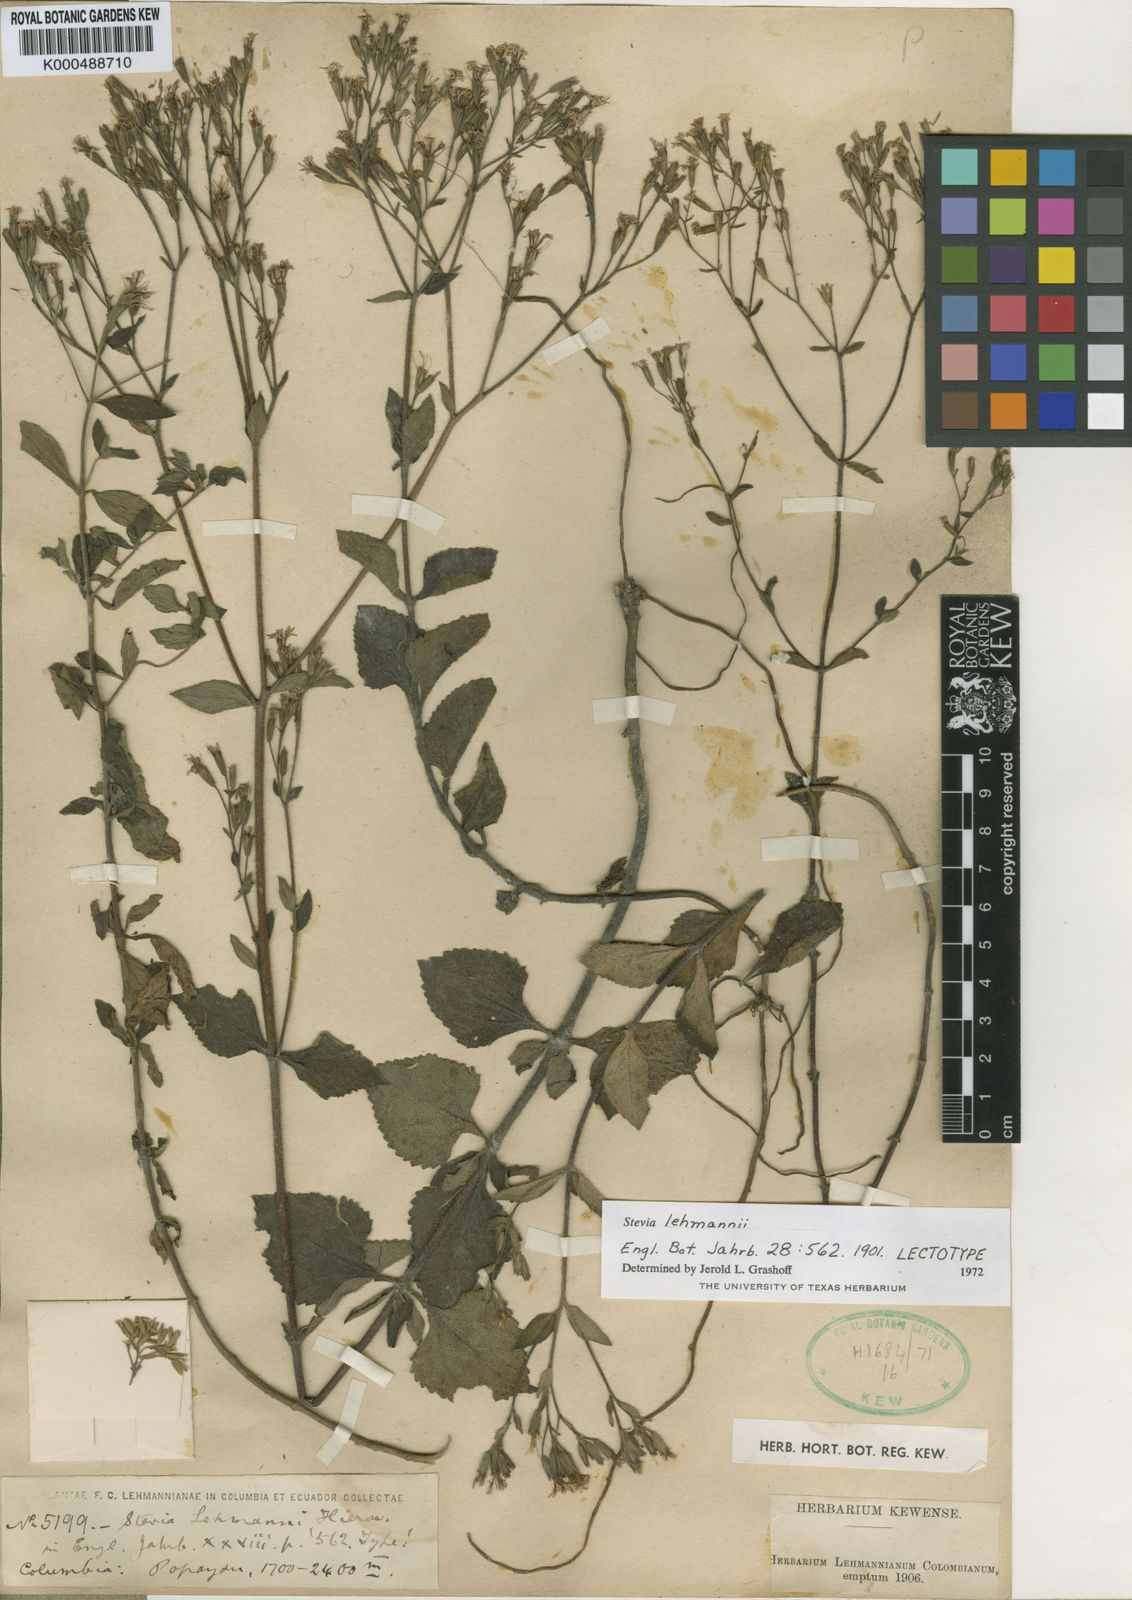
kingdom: Plantae
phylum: Tracheophyta
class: Magnoliopsida
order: Asterales
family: Asteraceae
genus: Stevia
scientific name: Stevia lehmannii
